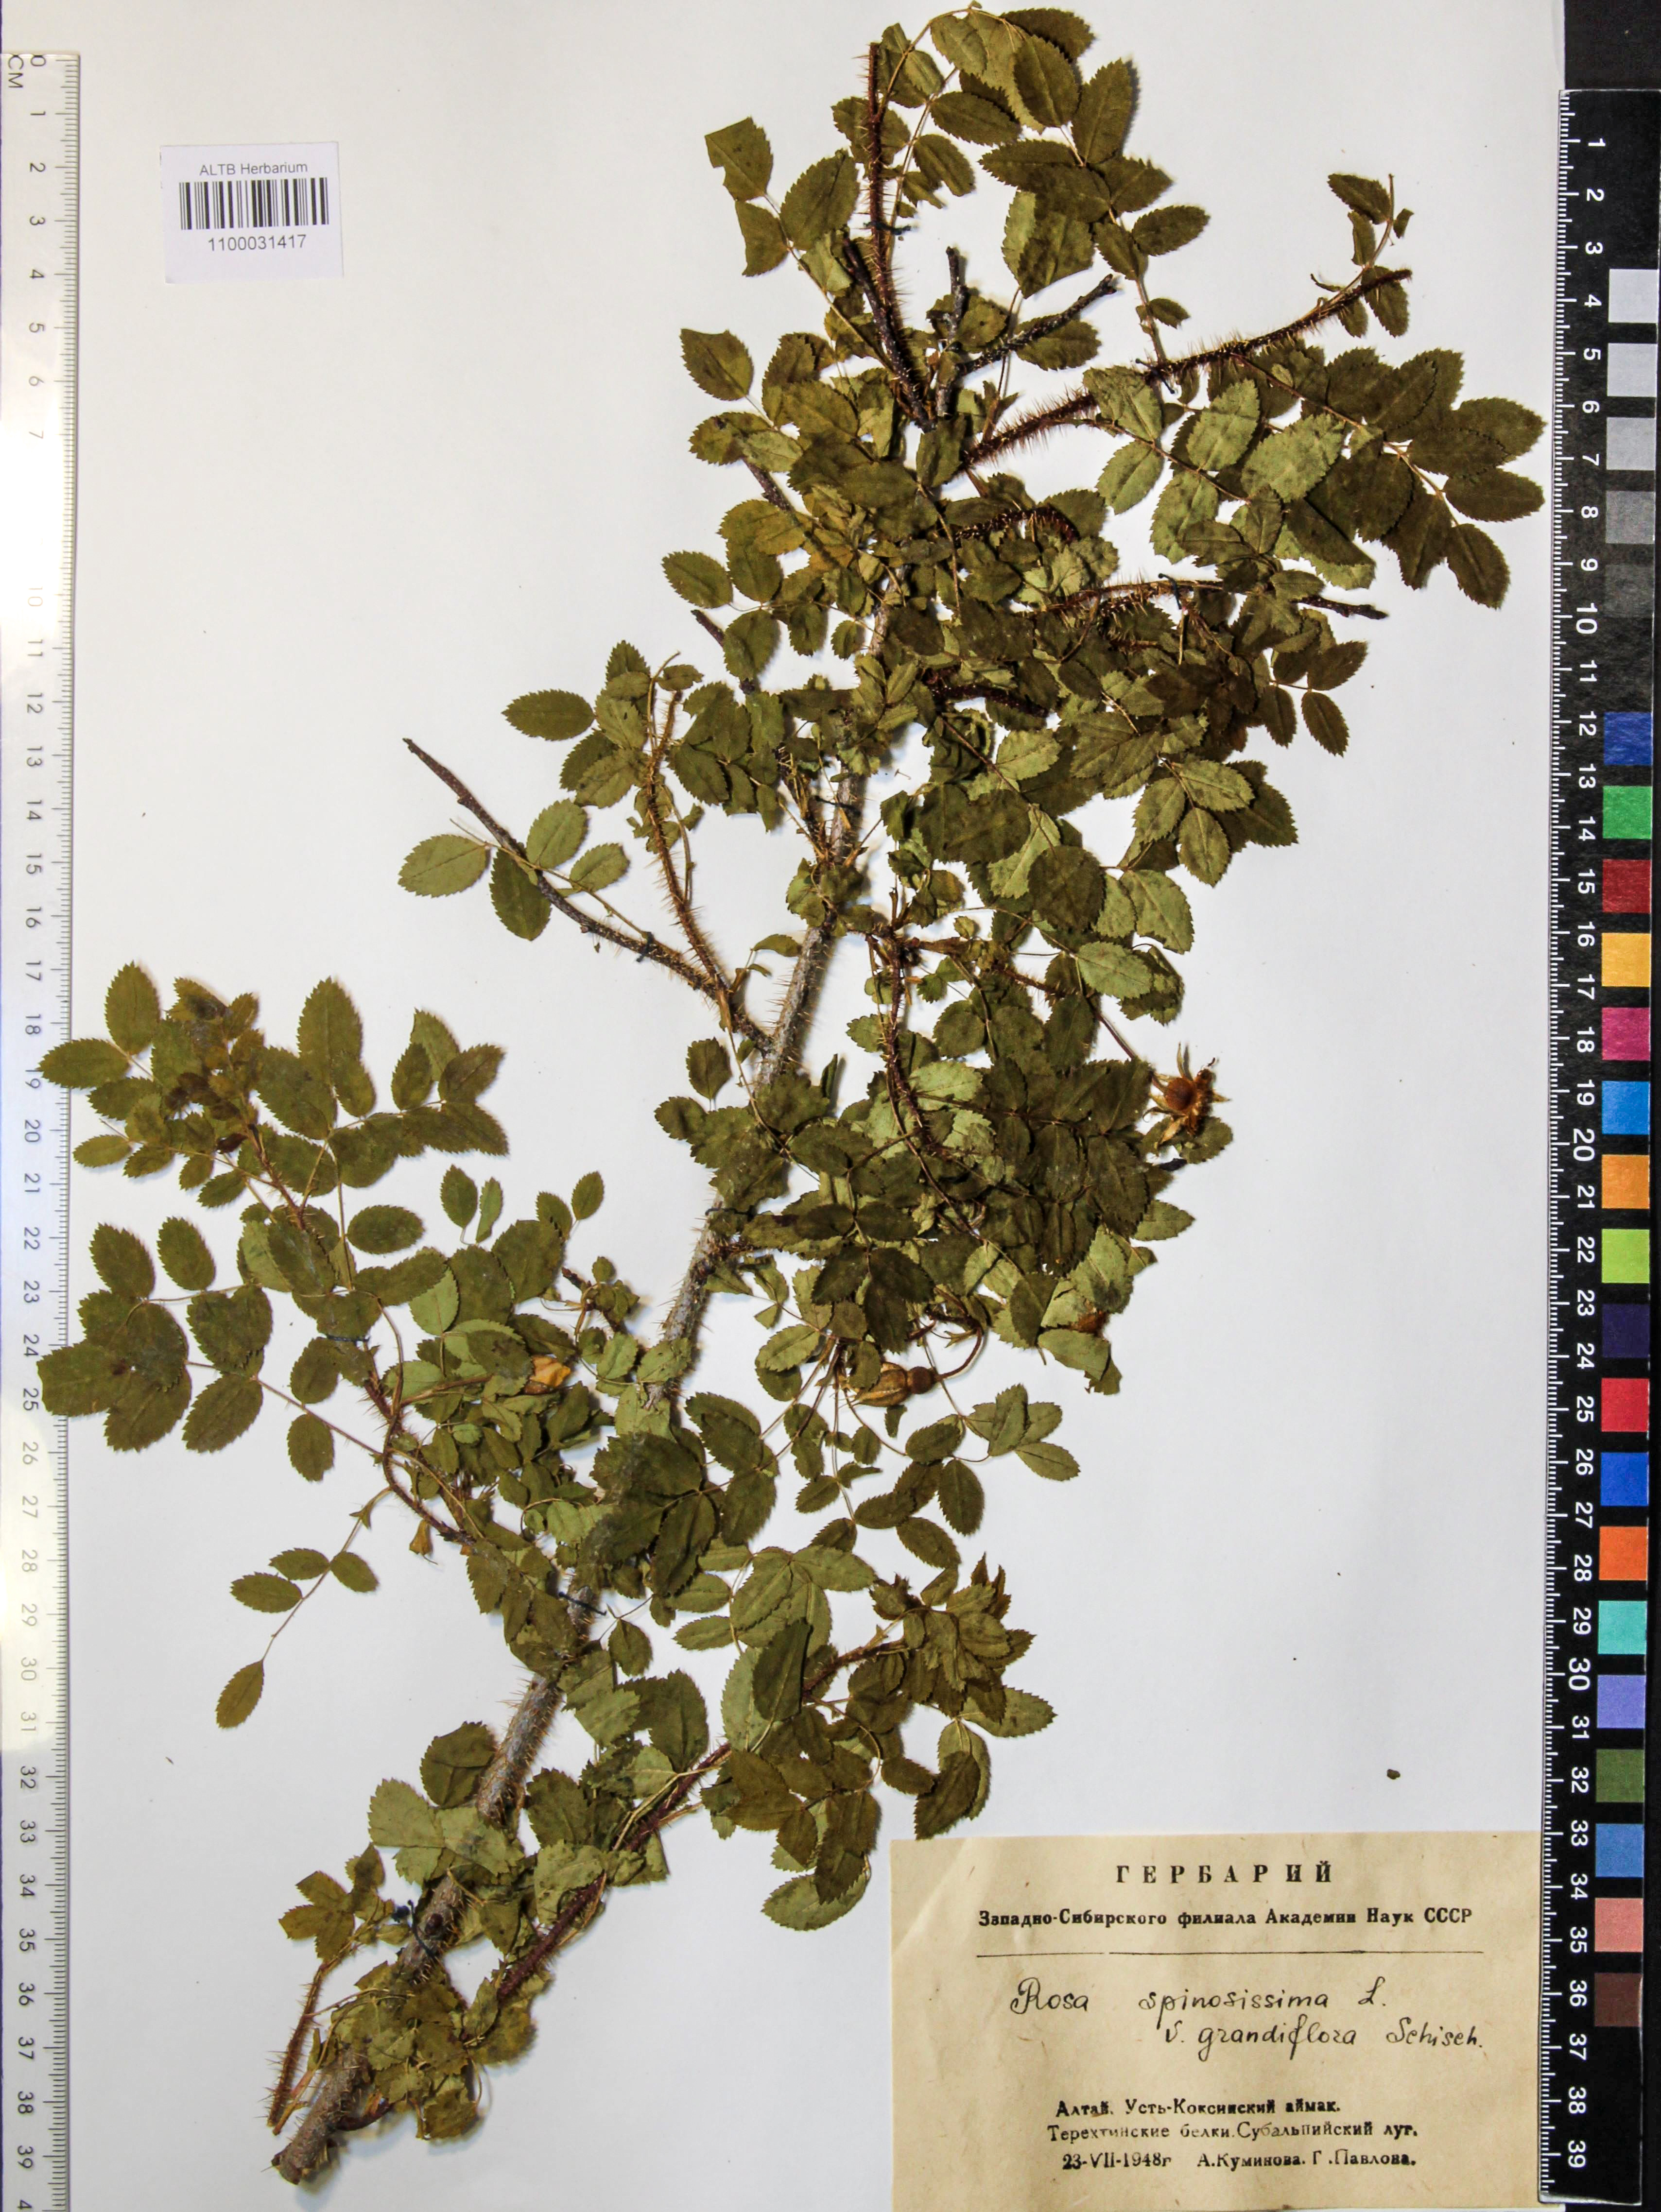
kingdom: Plantae
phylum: Tracheophyta
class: Magnoliopsida
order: Rosales
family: Rosaceae
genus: Rosa
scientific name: Rosa spinosissima
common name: Burnet rose
